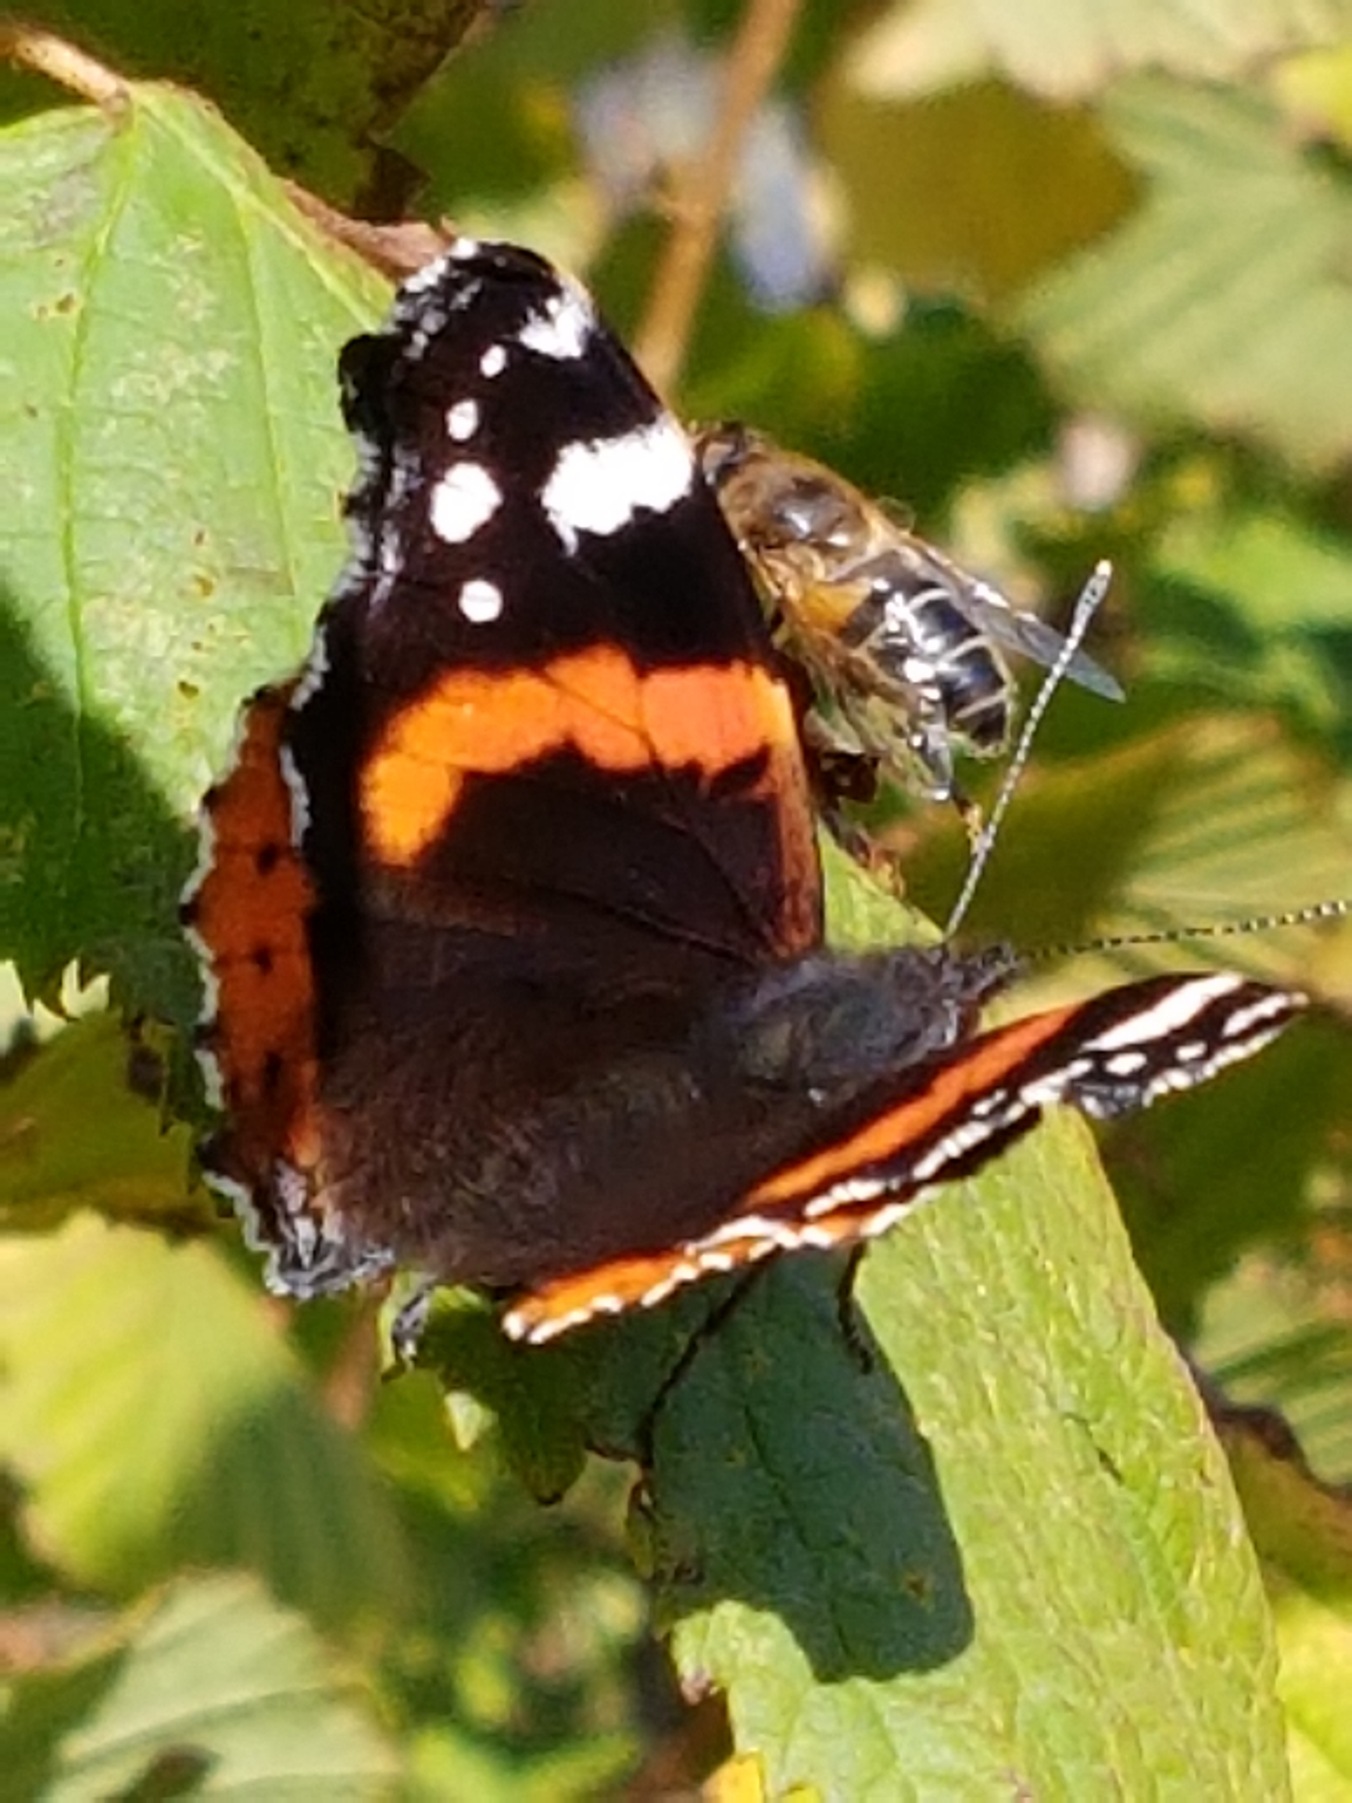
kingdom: Animalia
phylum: Arthropoda
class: Insecta
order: Lepidoptera
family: Nymphalidae
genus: Vanessa
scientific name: Vanessa atalanta
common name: Admiral
